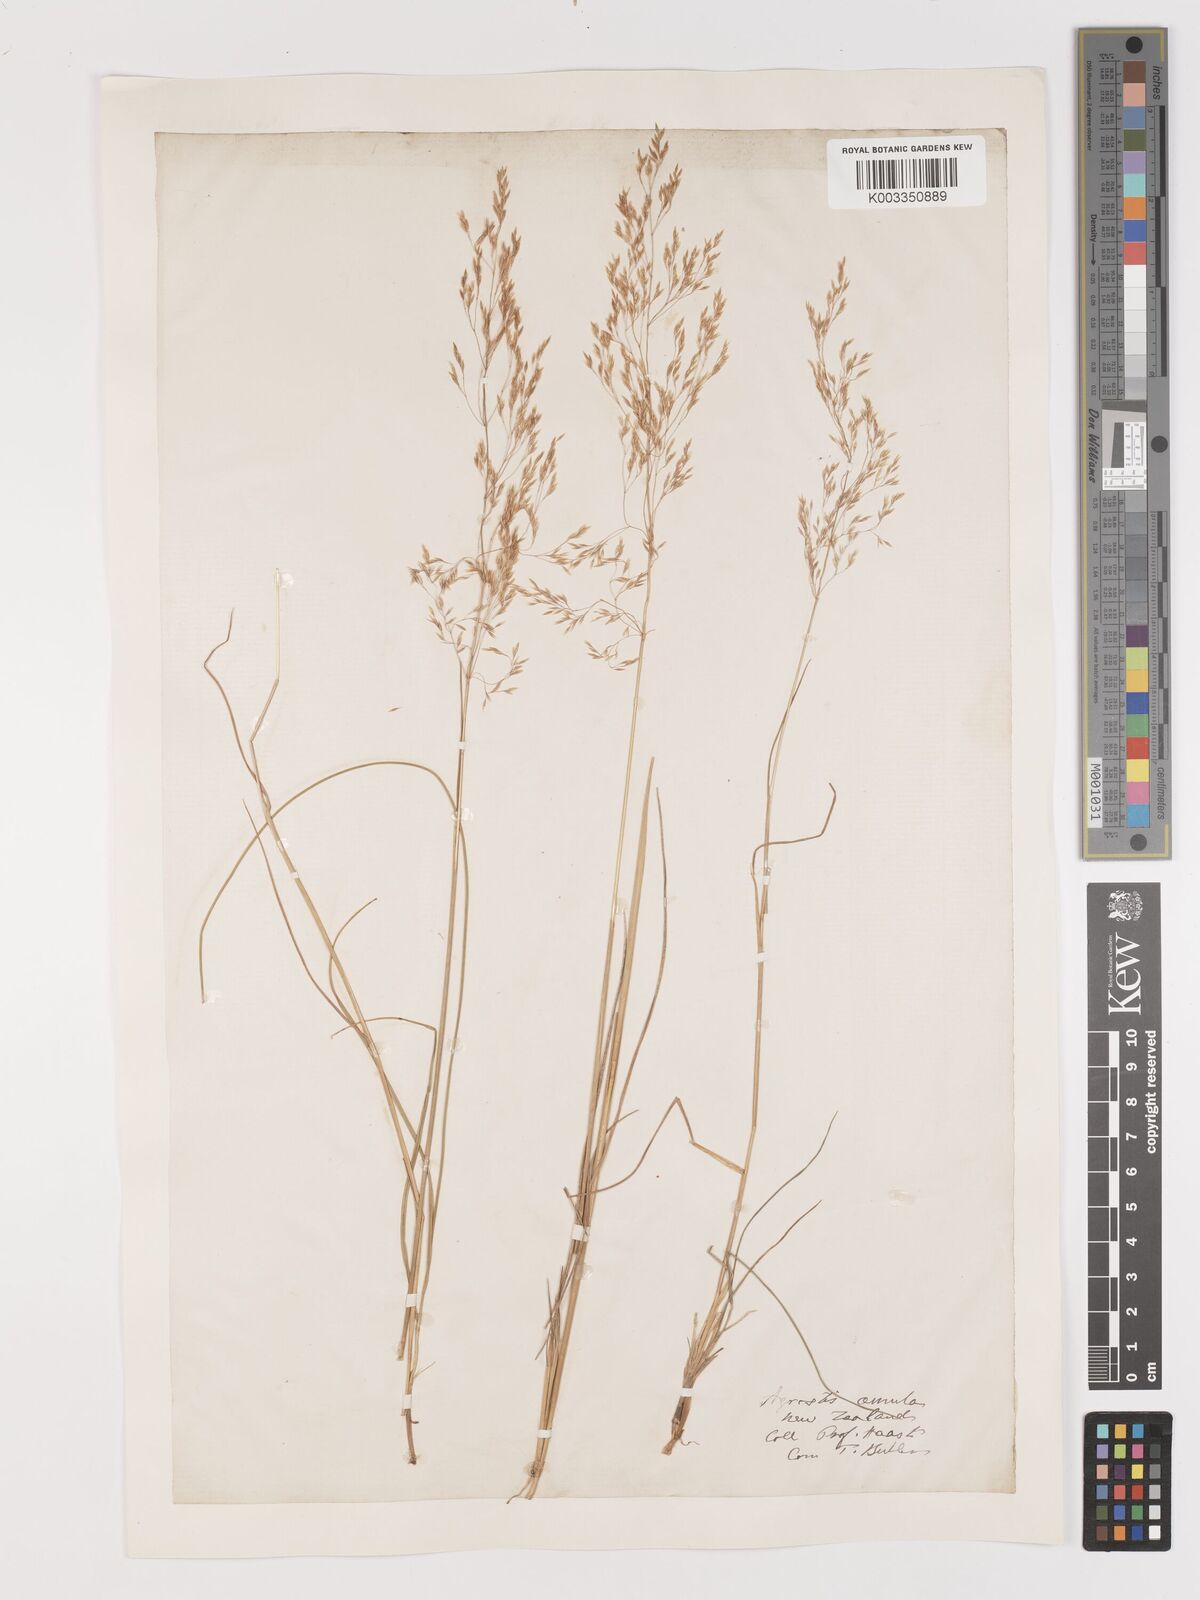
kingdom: Plantae
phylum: Tracheophyta
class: Liliopsida
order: Poales
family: Poaceae
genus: Lachnagrostis
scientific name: Lachnagrostis filiformis
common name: Bentgrass
